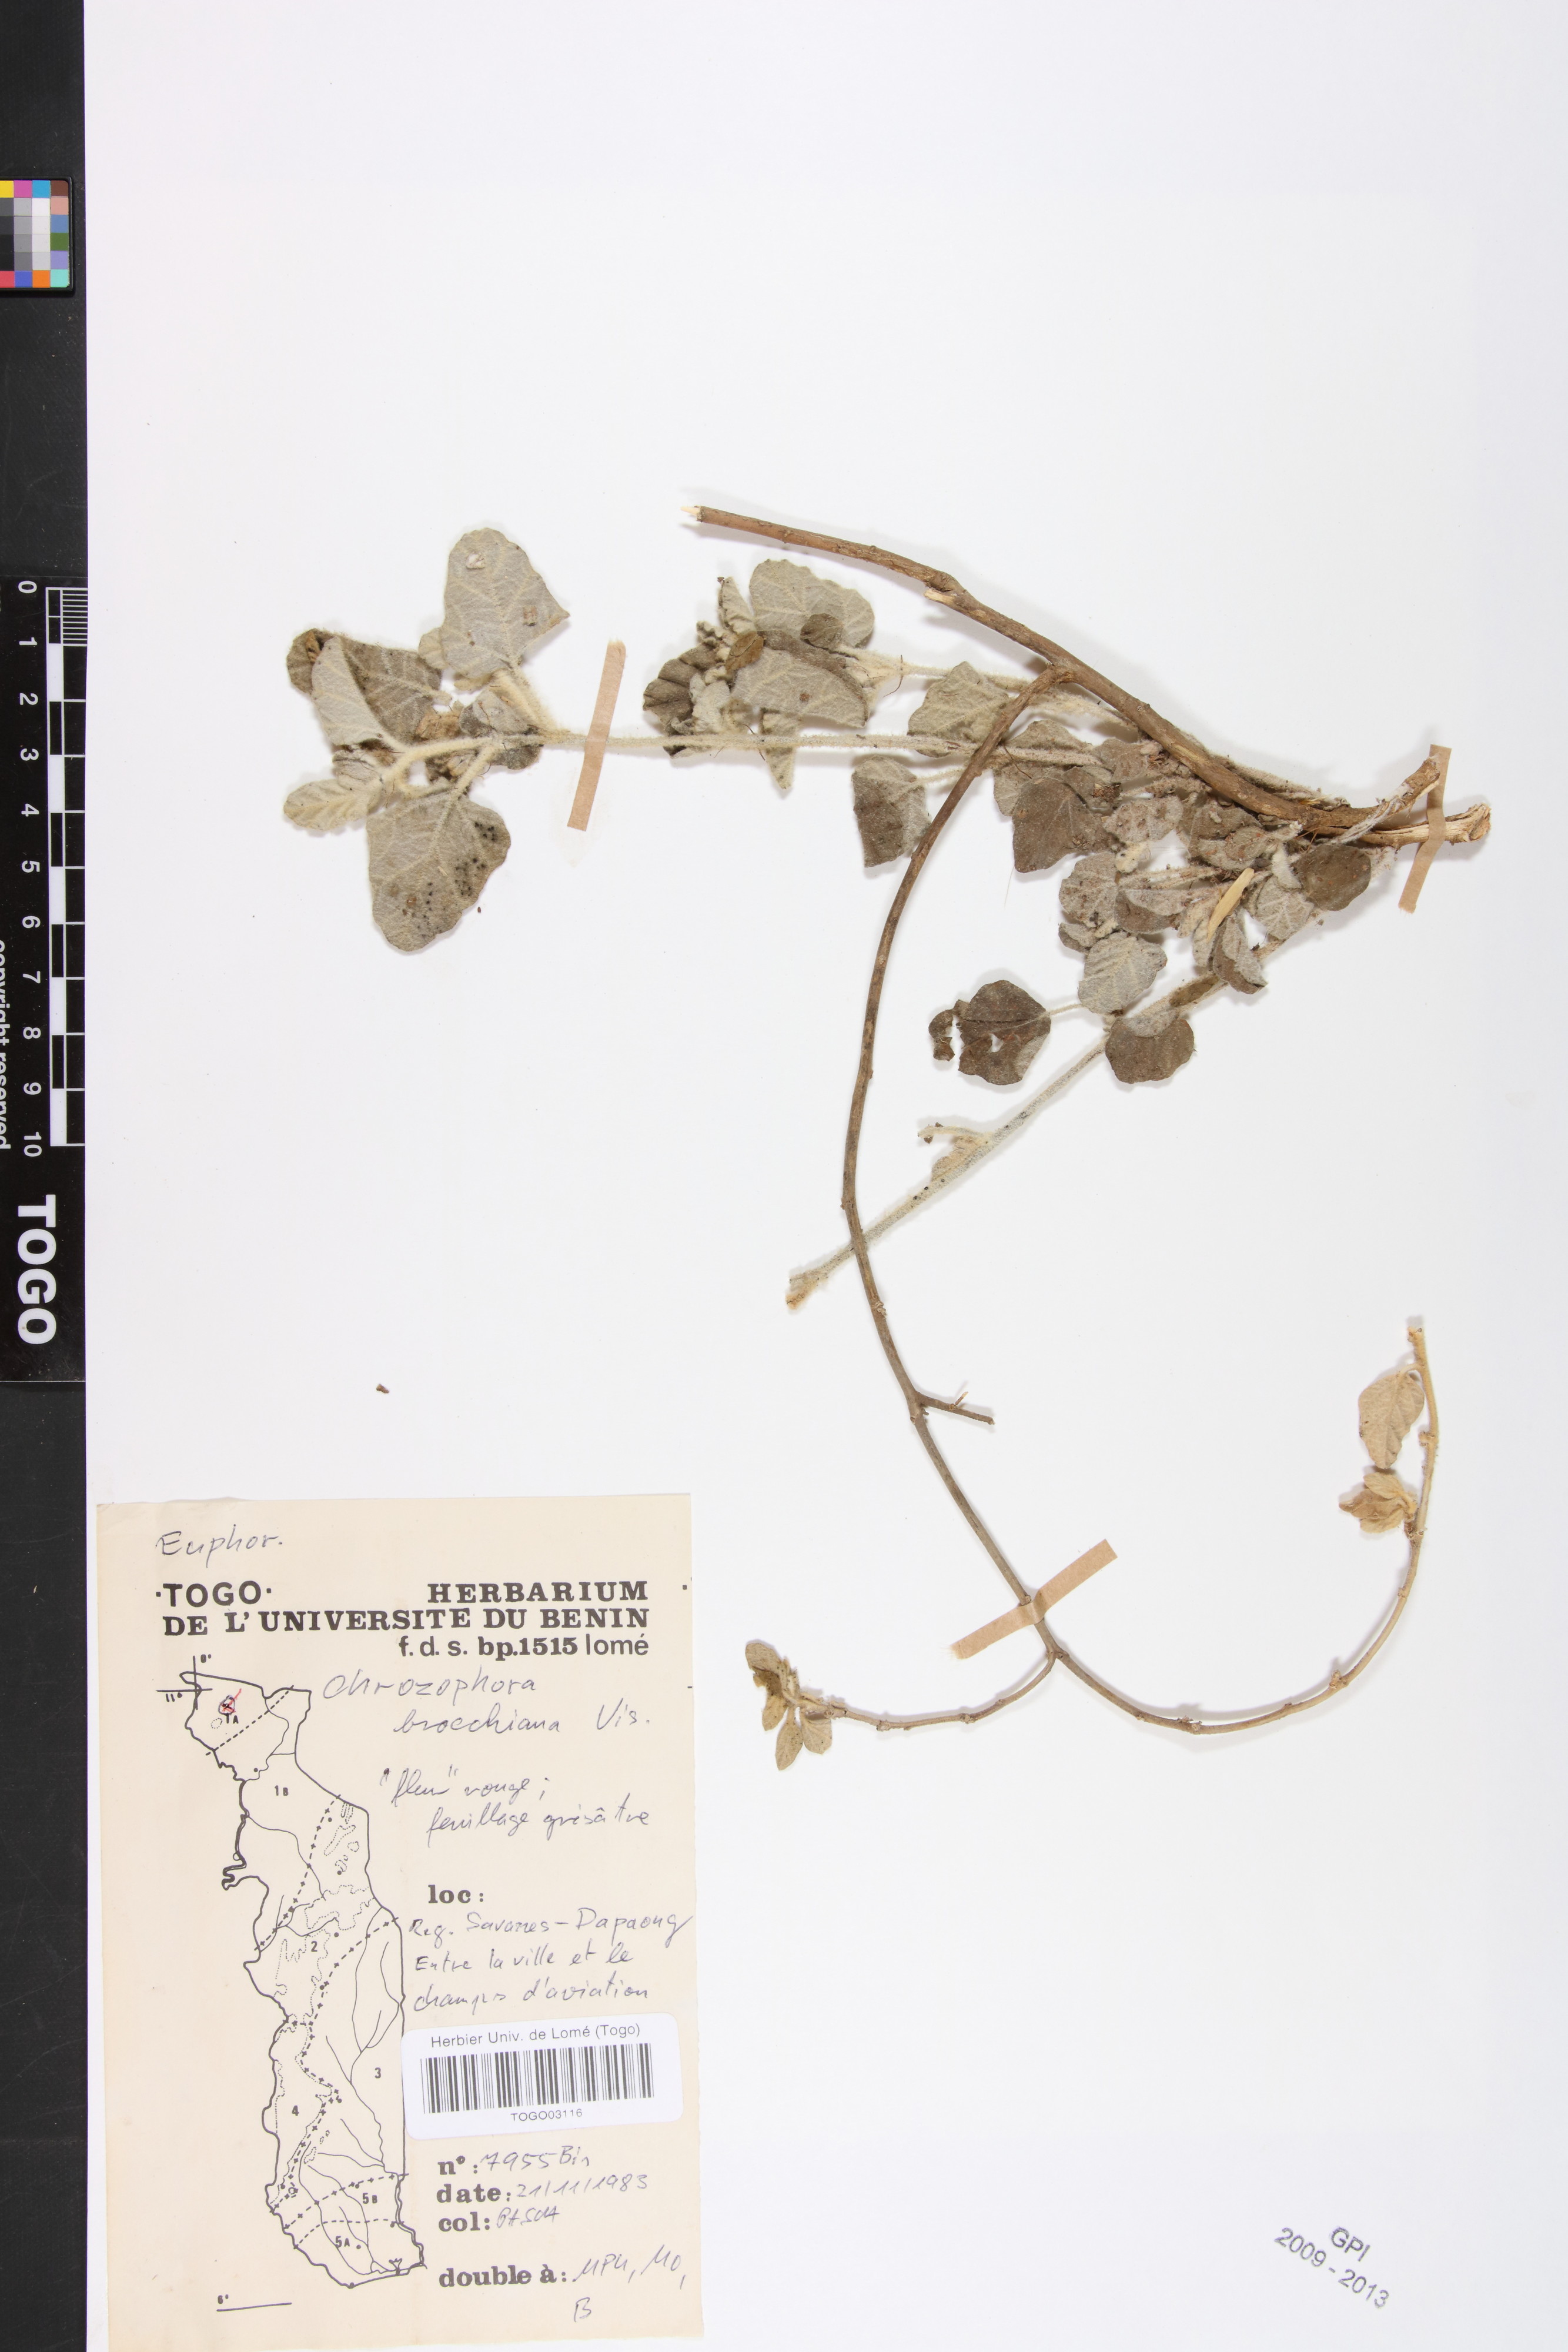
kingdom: Plantae
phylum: Tracheophyta
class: Magnoliopsida
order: Malpighiales
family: Euphorbiaceae
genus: Chrozophora
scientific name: Chrozophora brocchiana
